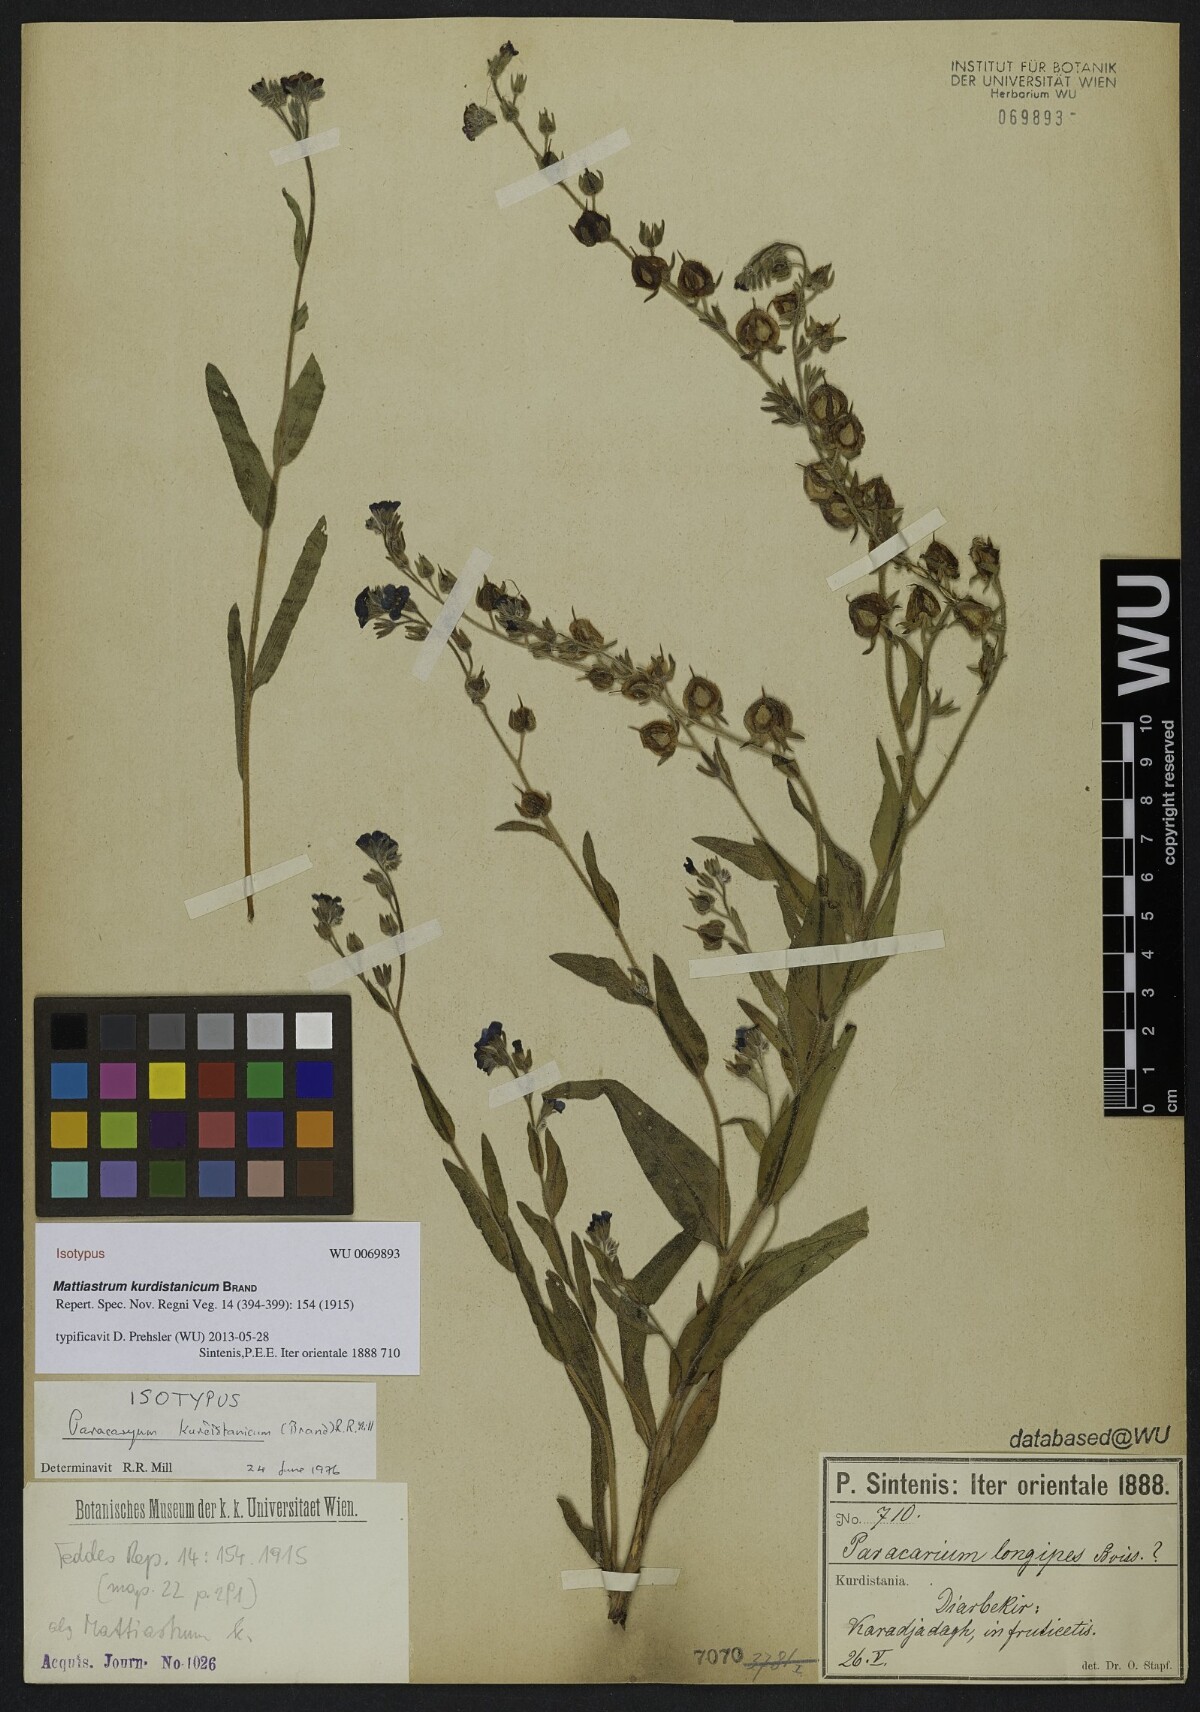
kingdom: Plantae
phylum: Tracheophyta
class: Magnoliopsida
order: Boraginales
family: Boraginaceae
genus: Paracaryum
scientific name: Paracaryum kurdistanicum
